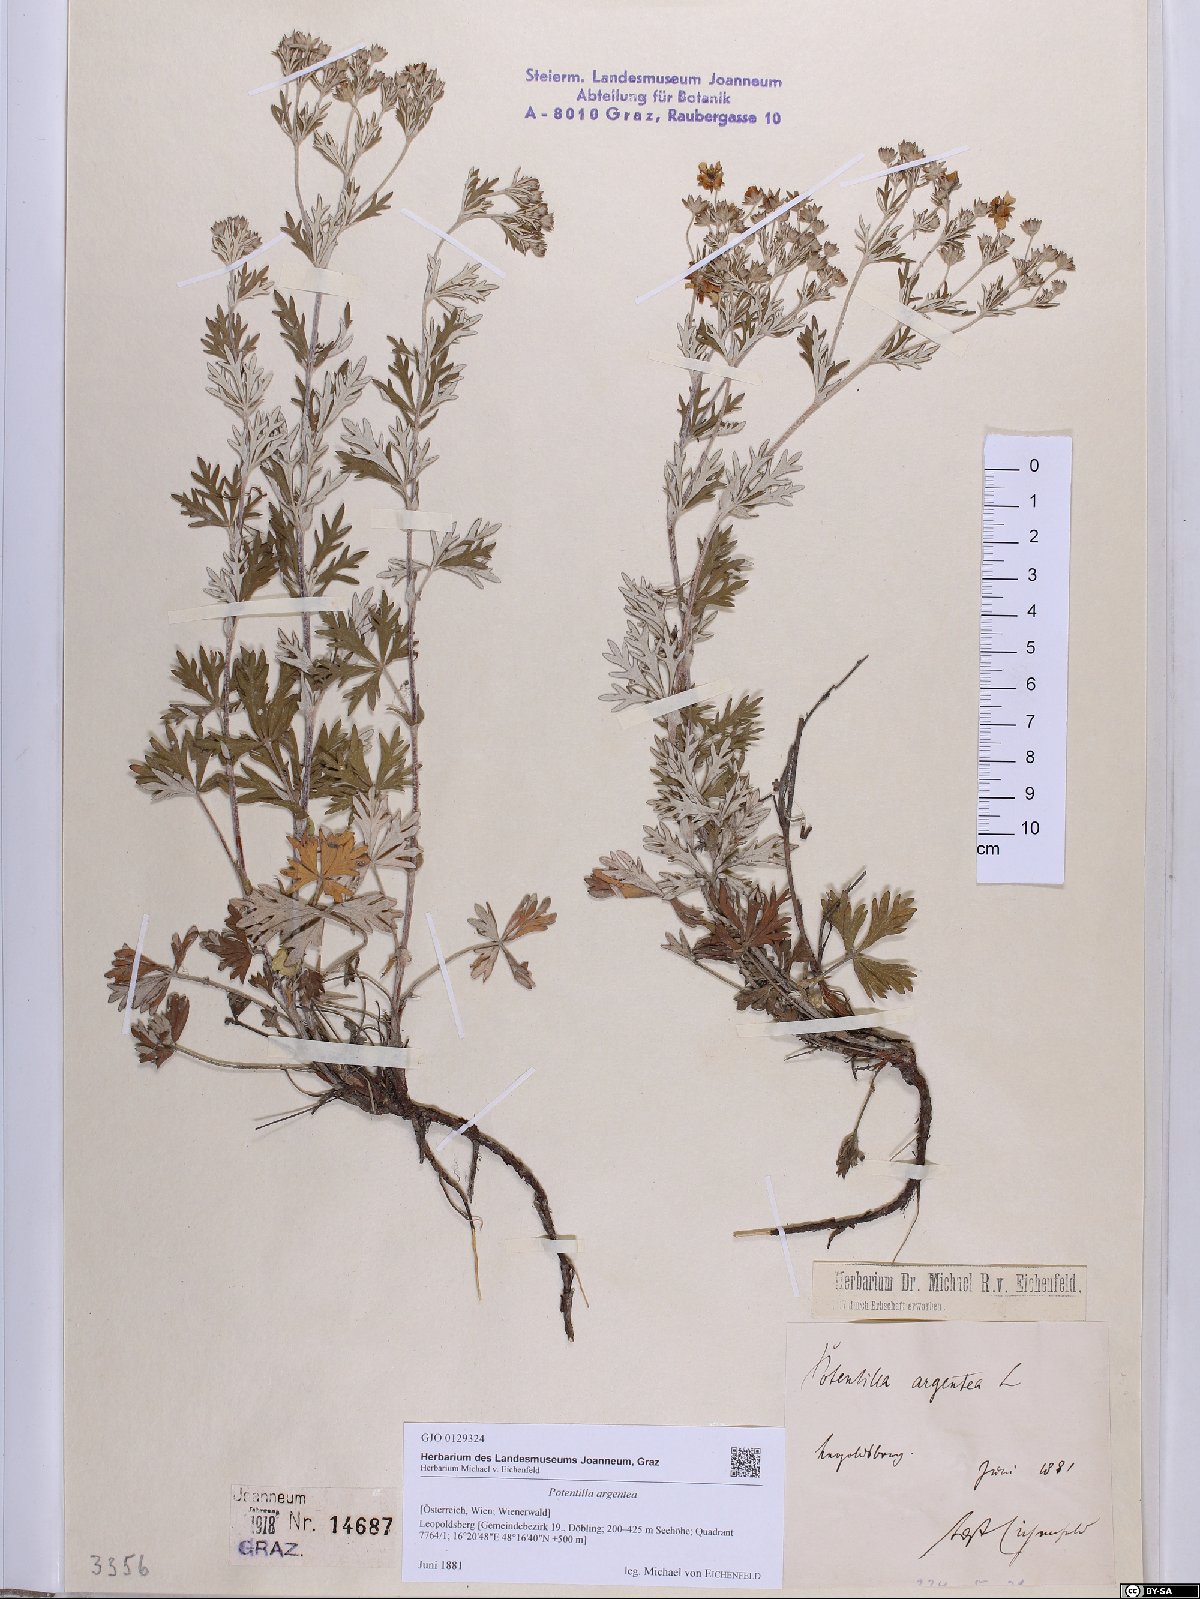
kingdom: Plantae
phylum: Tracheophyta
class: Magnoliopsida
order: Rosales
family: Rosaceae
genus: Potentilla
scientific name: Potentilla argentea
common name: Hoary cinquefoil
